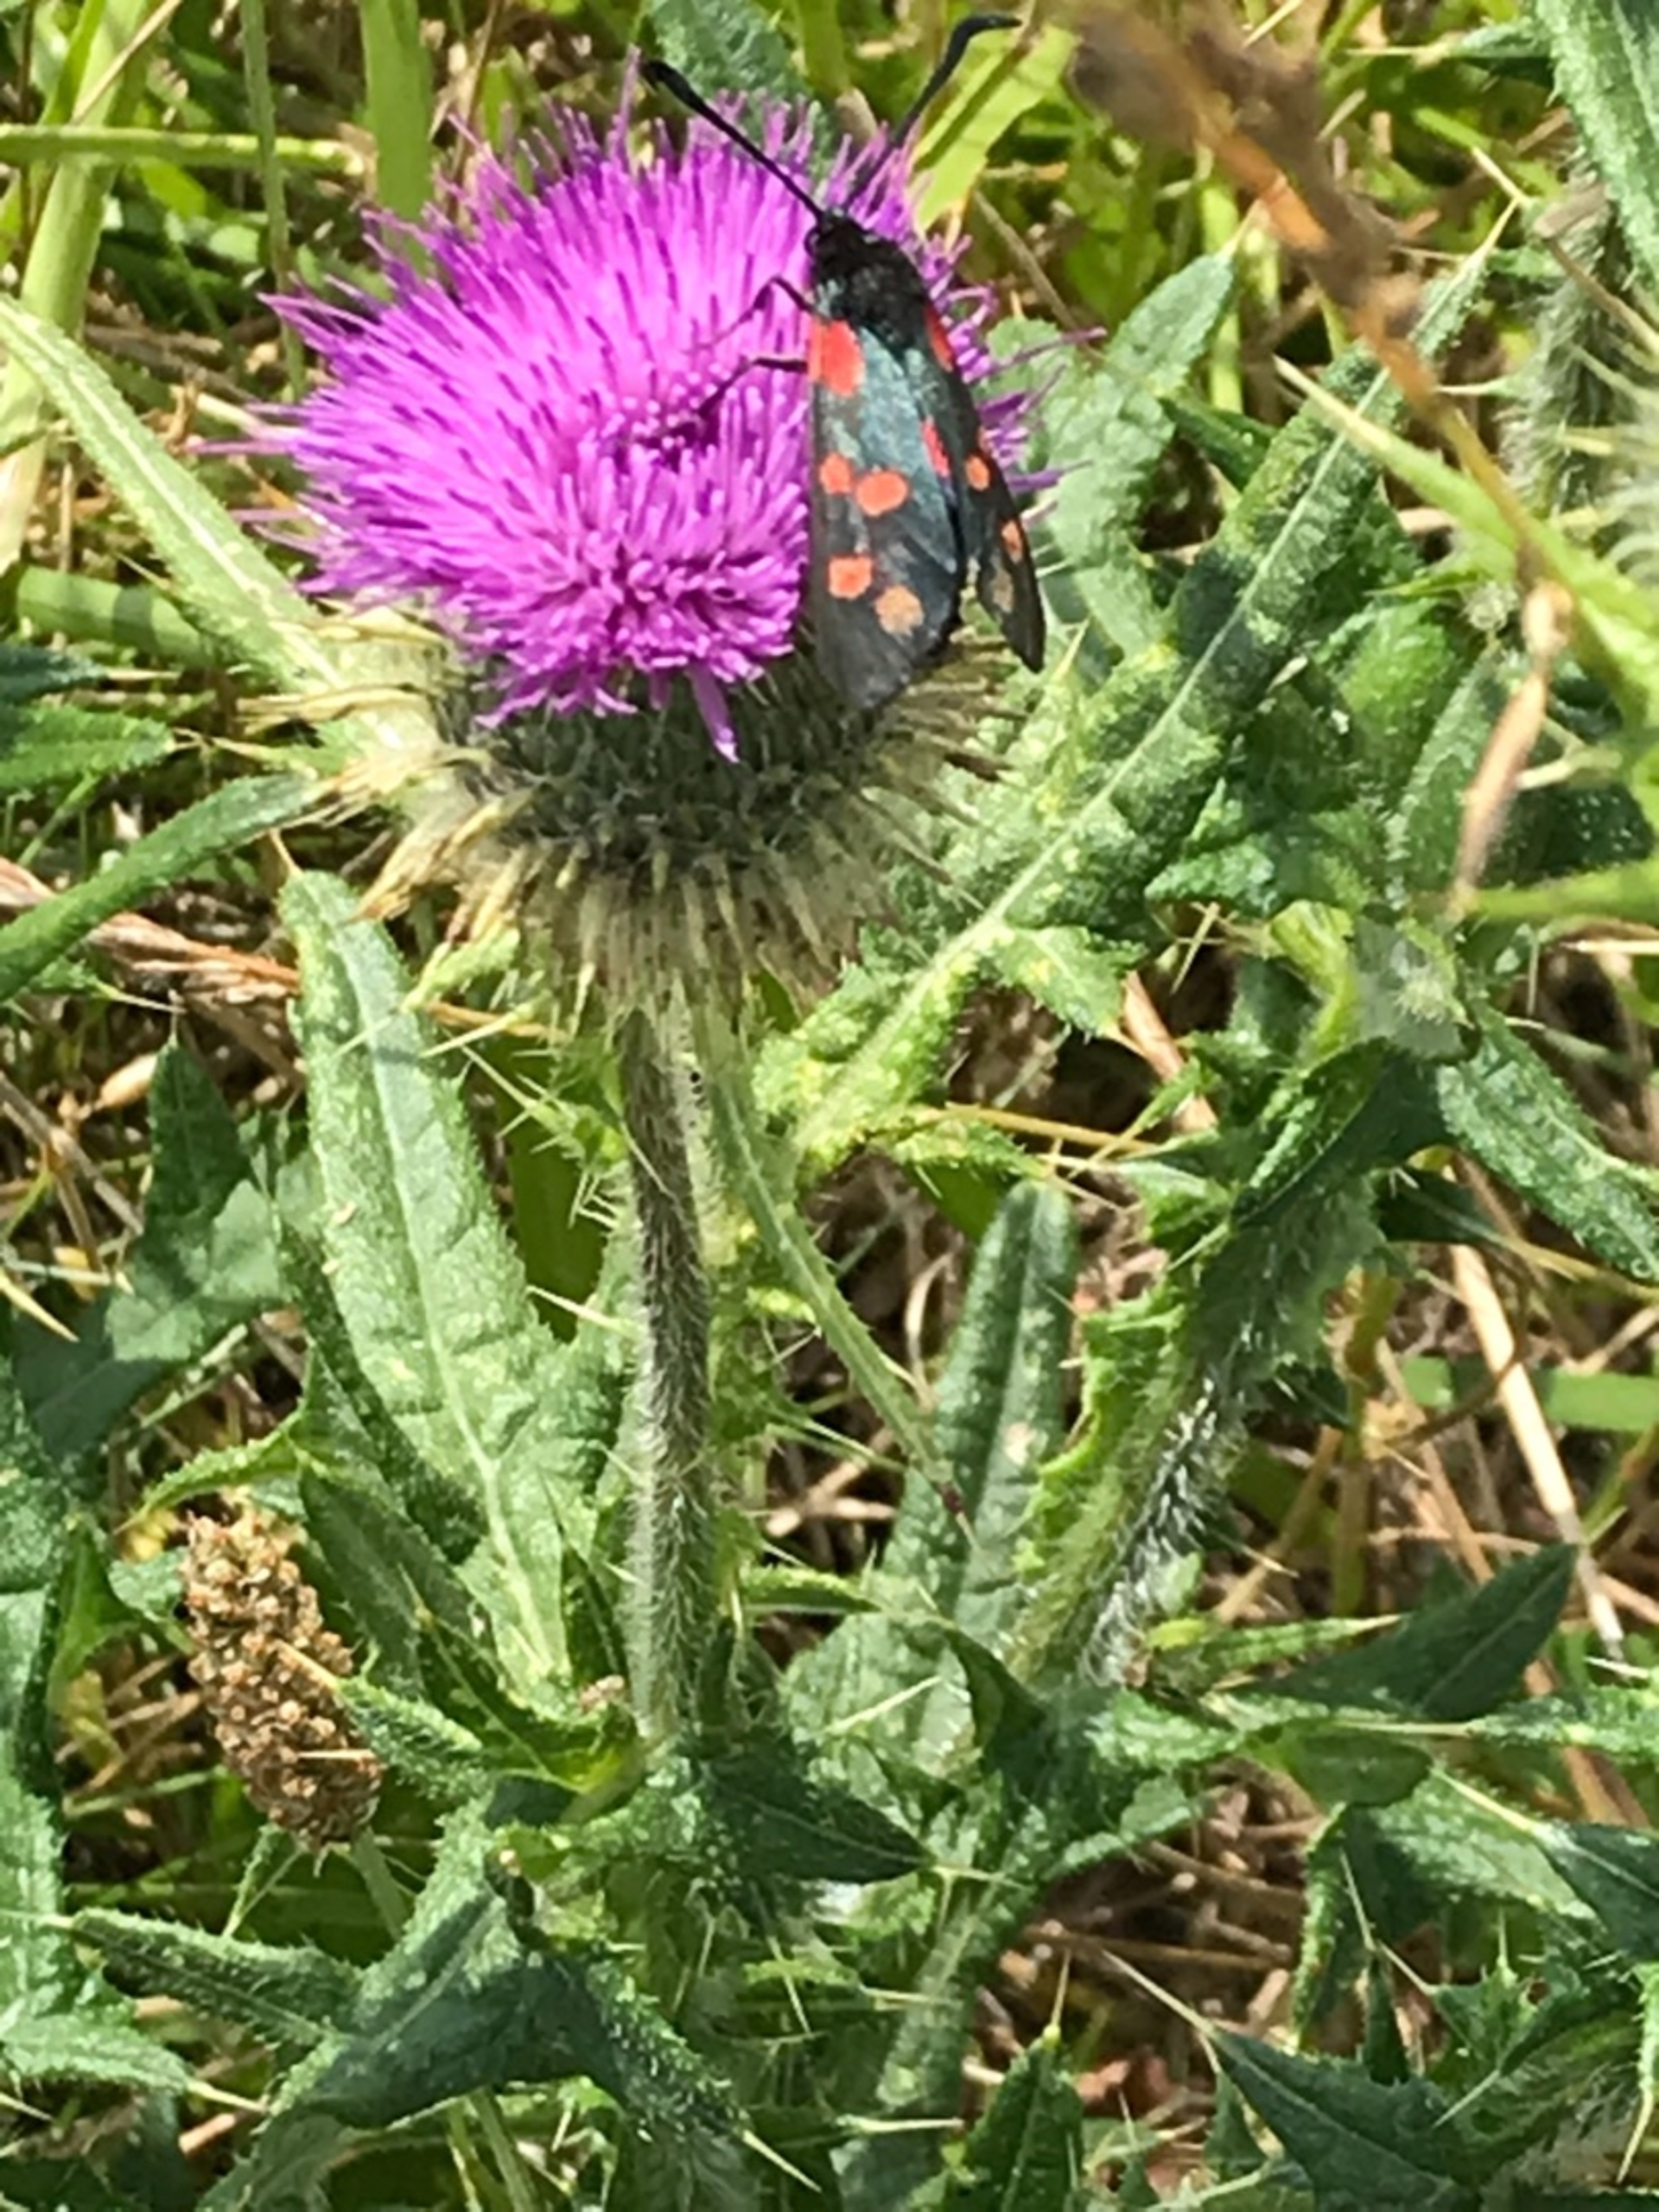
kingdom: Animalia
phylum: Arthropoda
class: Insecta
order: Lepidoptera
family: Zygaenidae
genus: Zygaena
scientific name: Zygaena filipendulae
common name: Seksplettet køllesværmer
